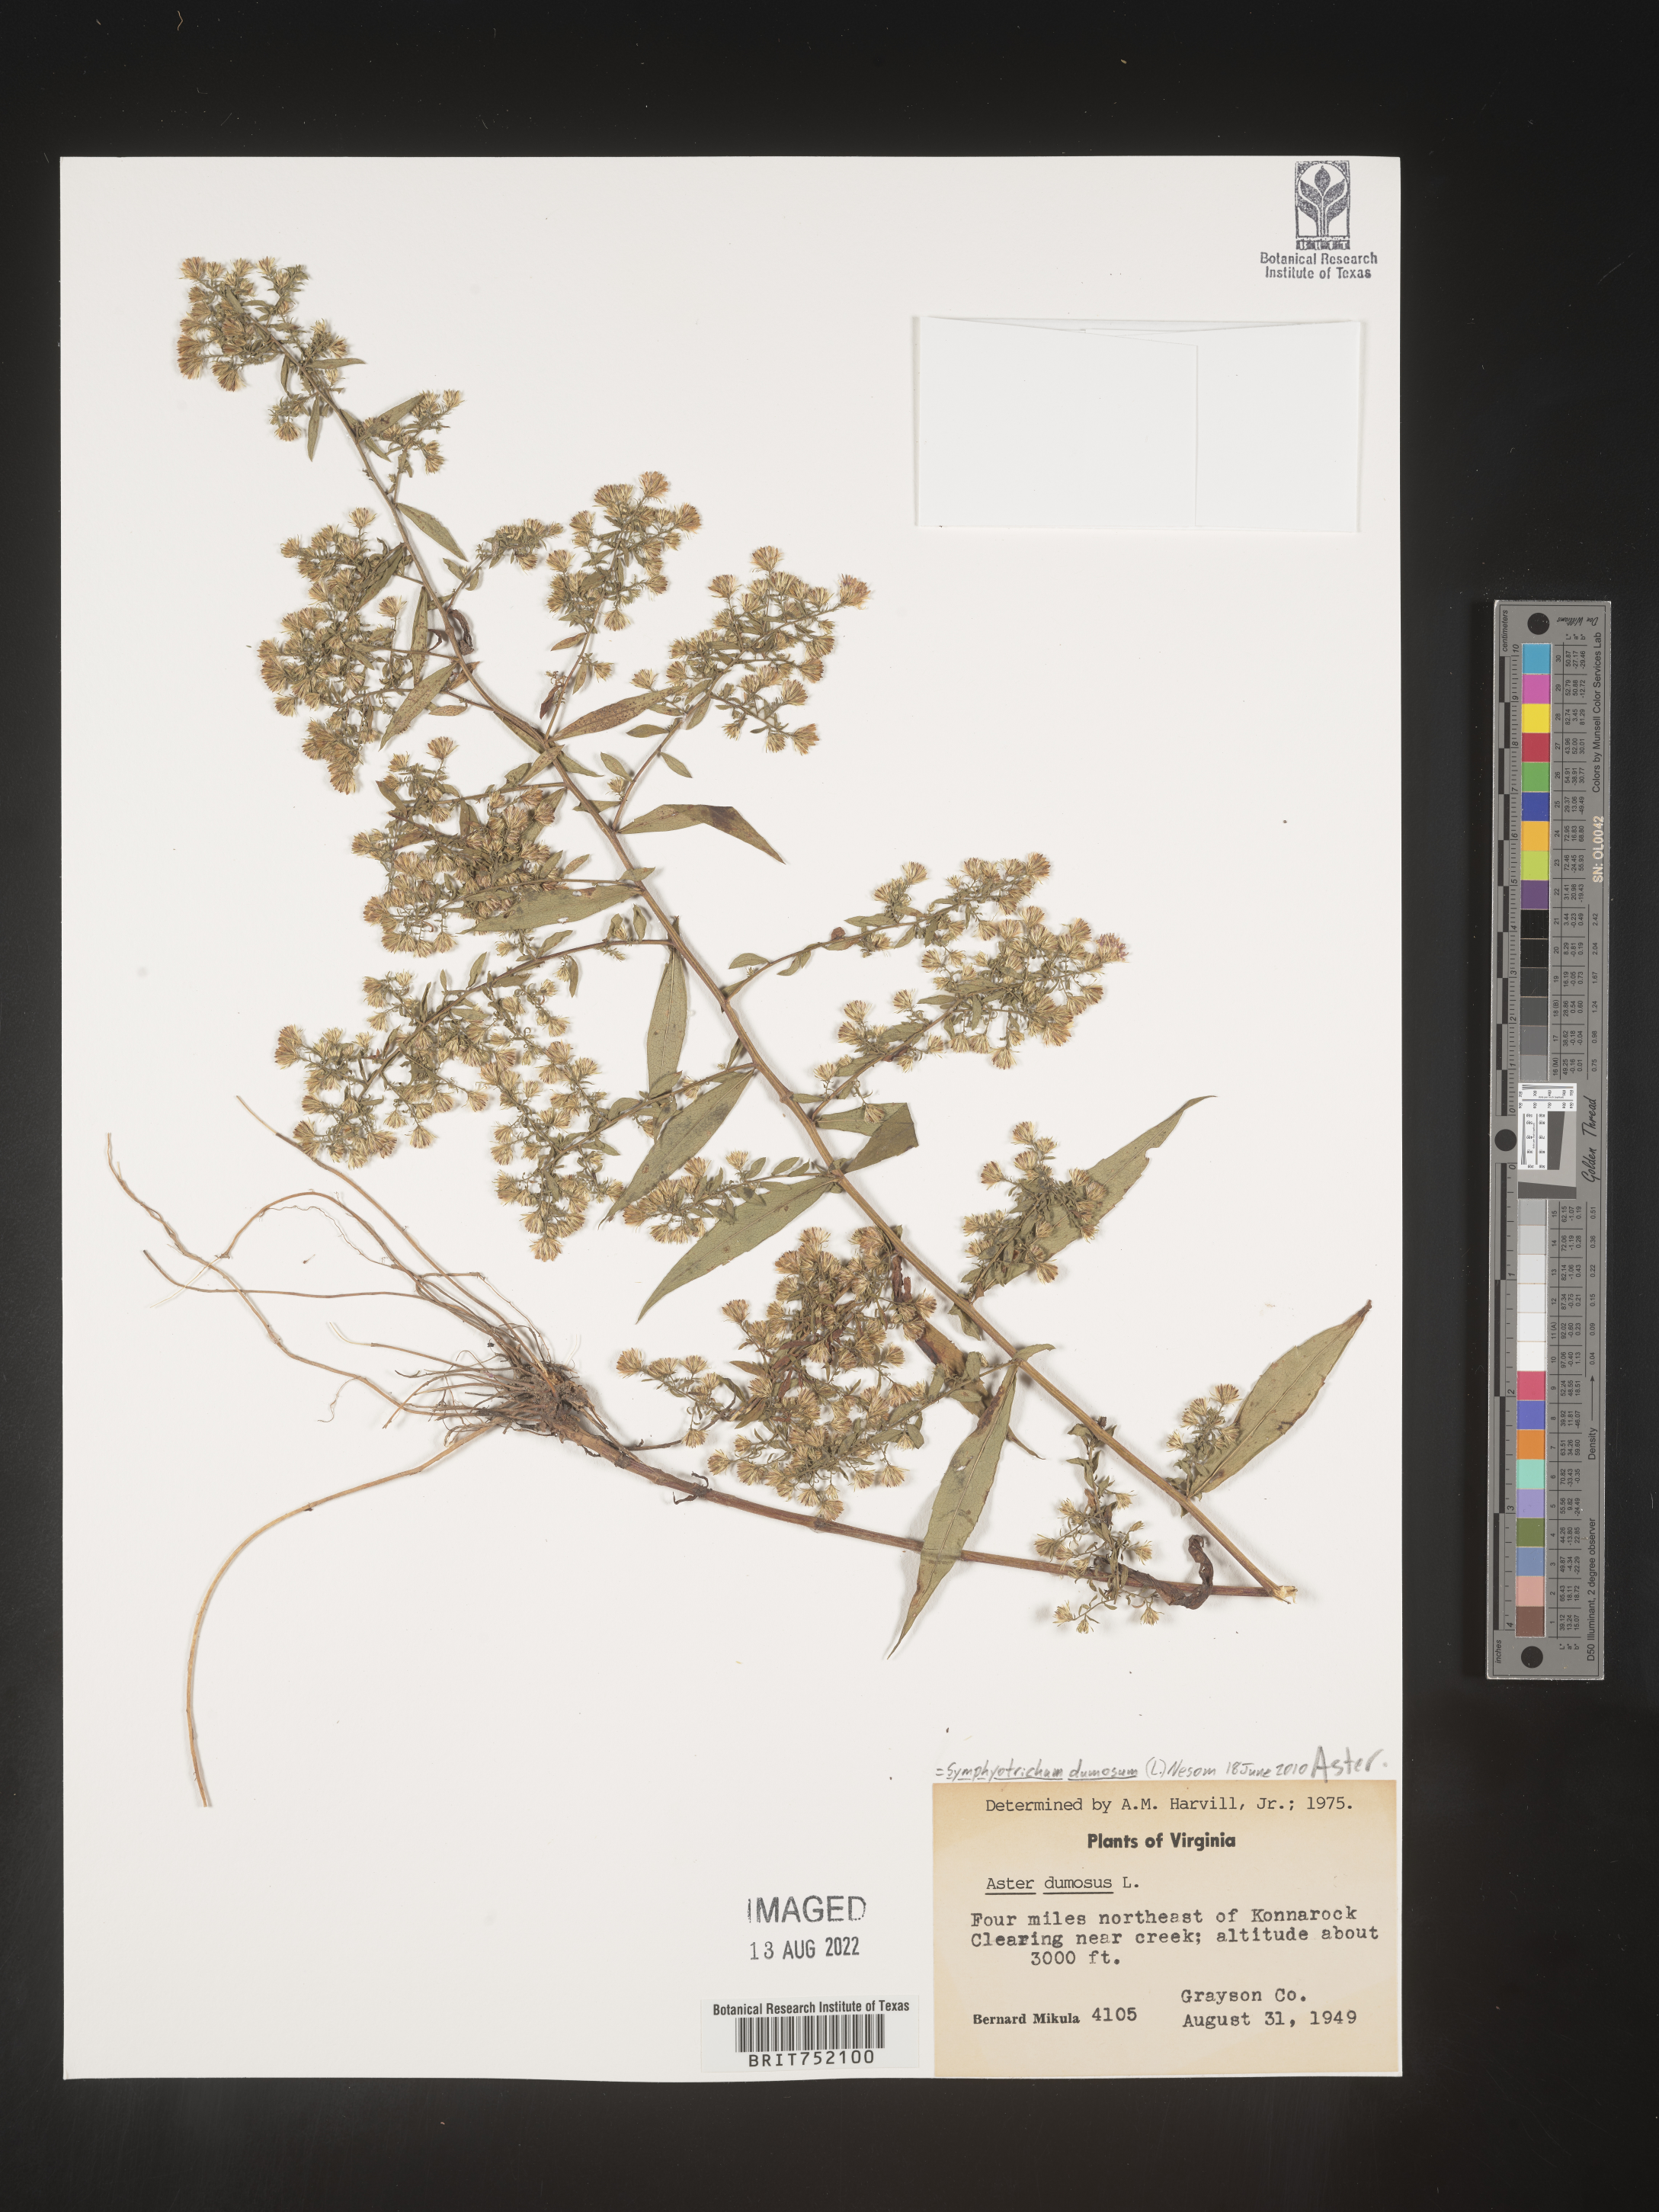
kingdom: Plantae
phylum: Tracheophyta
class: Magnoliopsida
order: Asterales
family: Asteraceae
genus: Symphyotrichum
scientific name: Symphyotrichum dumosum
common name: Bushy aster
